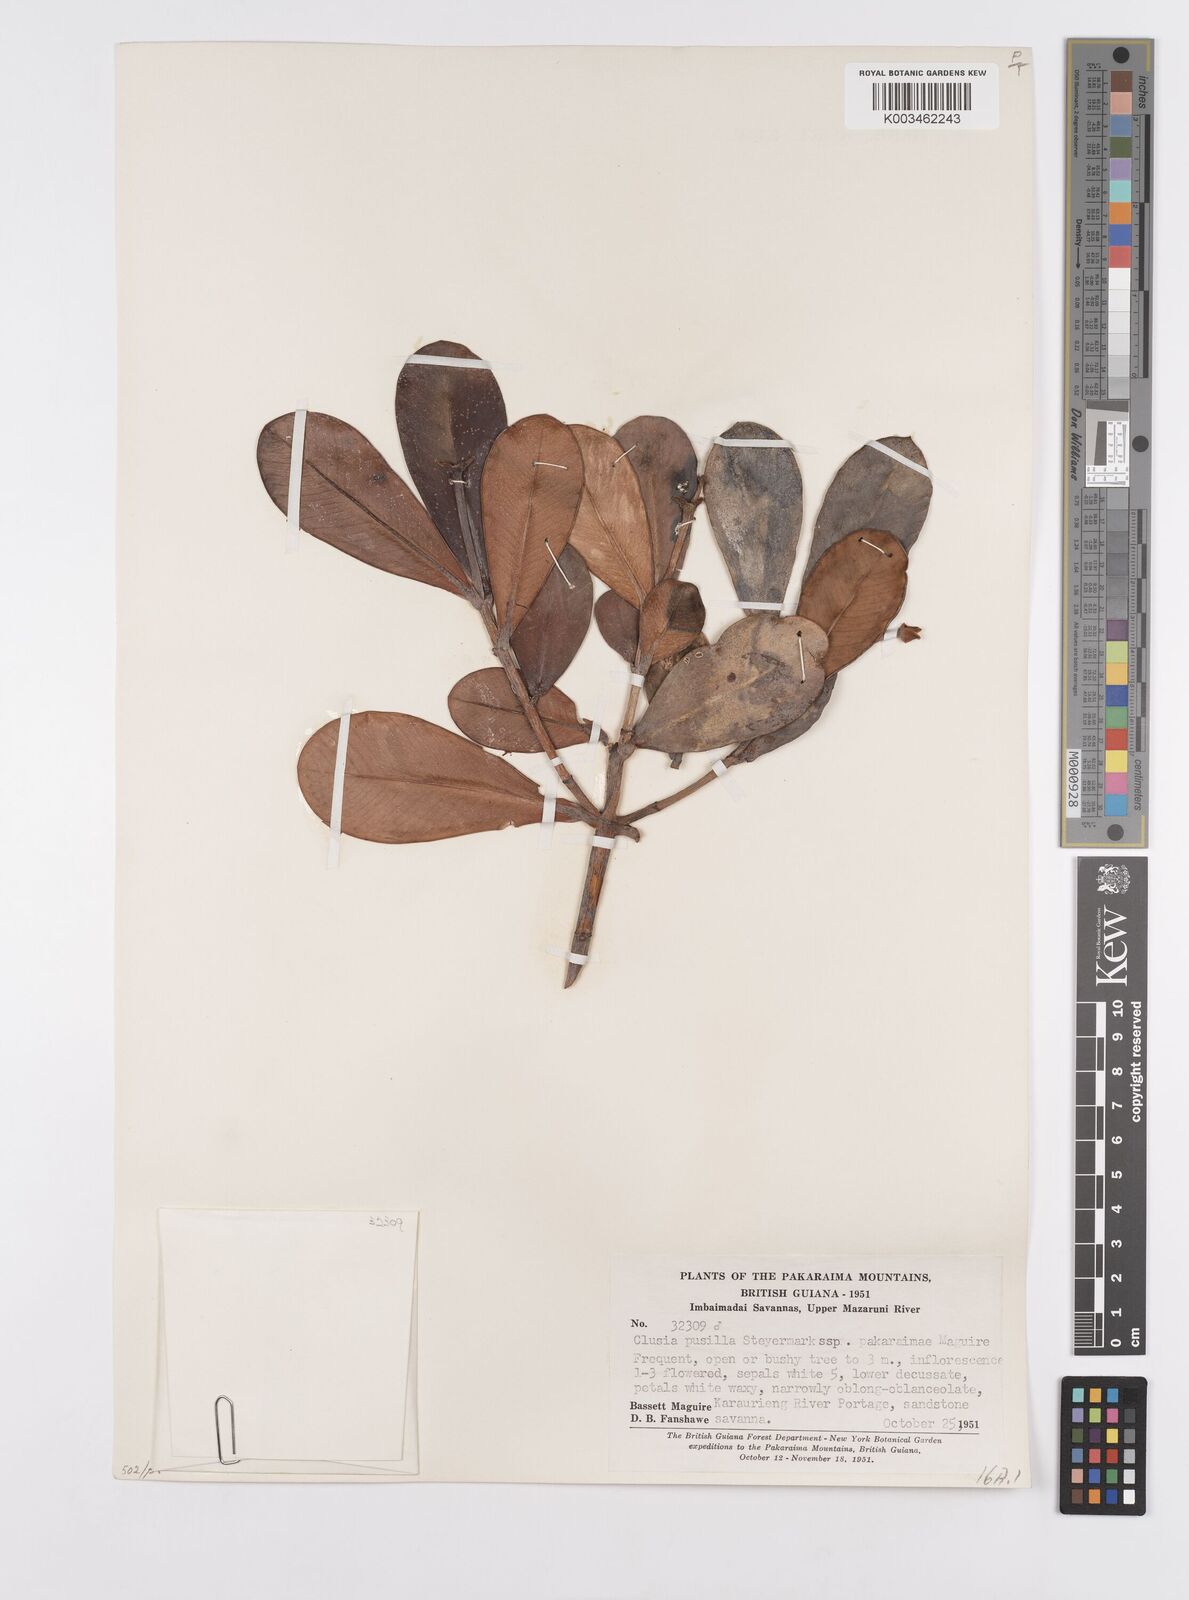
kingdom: Plantae
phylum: Tracheophyta
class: Magnoliopsida
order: Malpighiales
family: Clusiaceae
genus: Clusia
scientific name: Clusia pusilla
